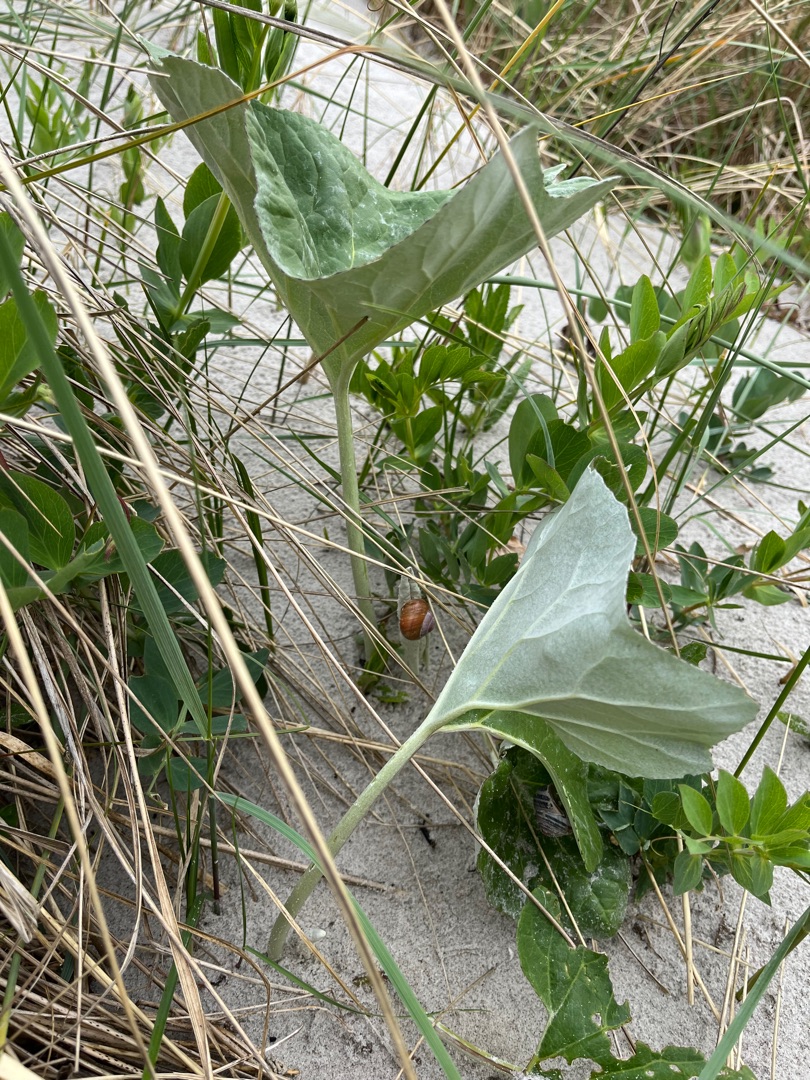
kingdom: Plantae
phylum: Tracheophyta
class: Magnoliopsida
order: Asterales
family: Asteraceae
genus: Petasites
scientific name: Petasites spurius
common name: Filtet hestehov
